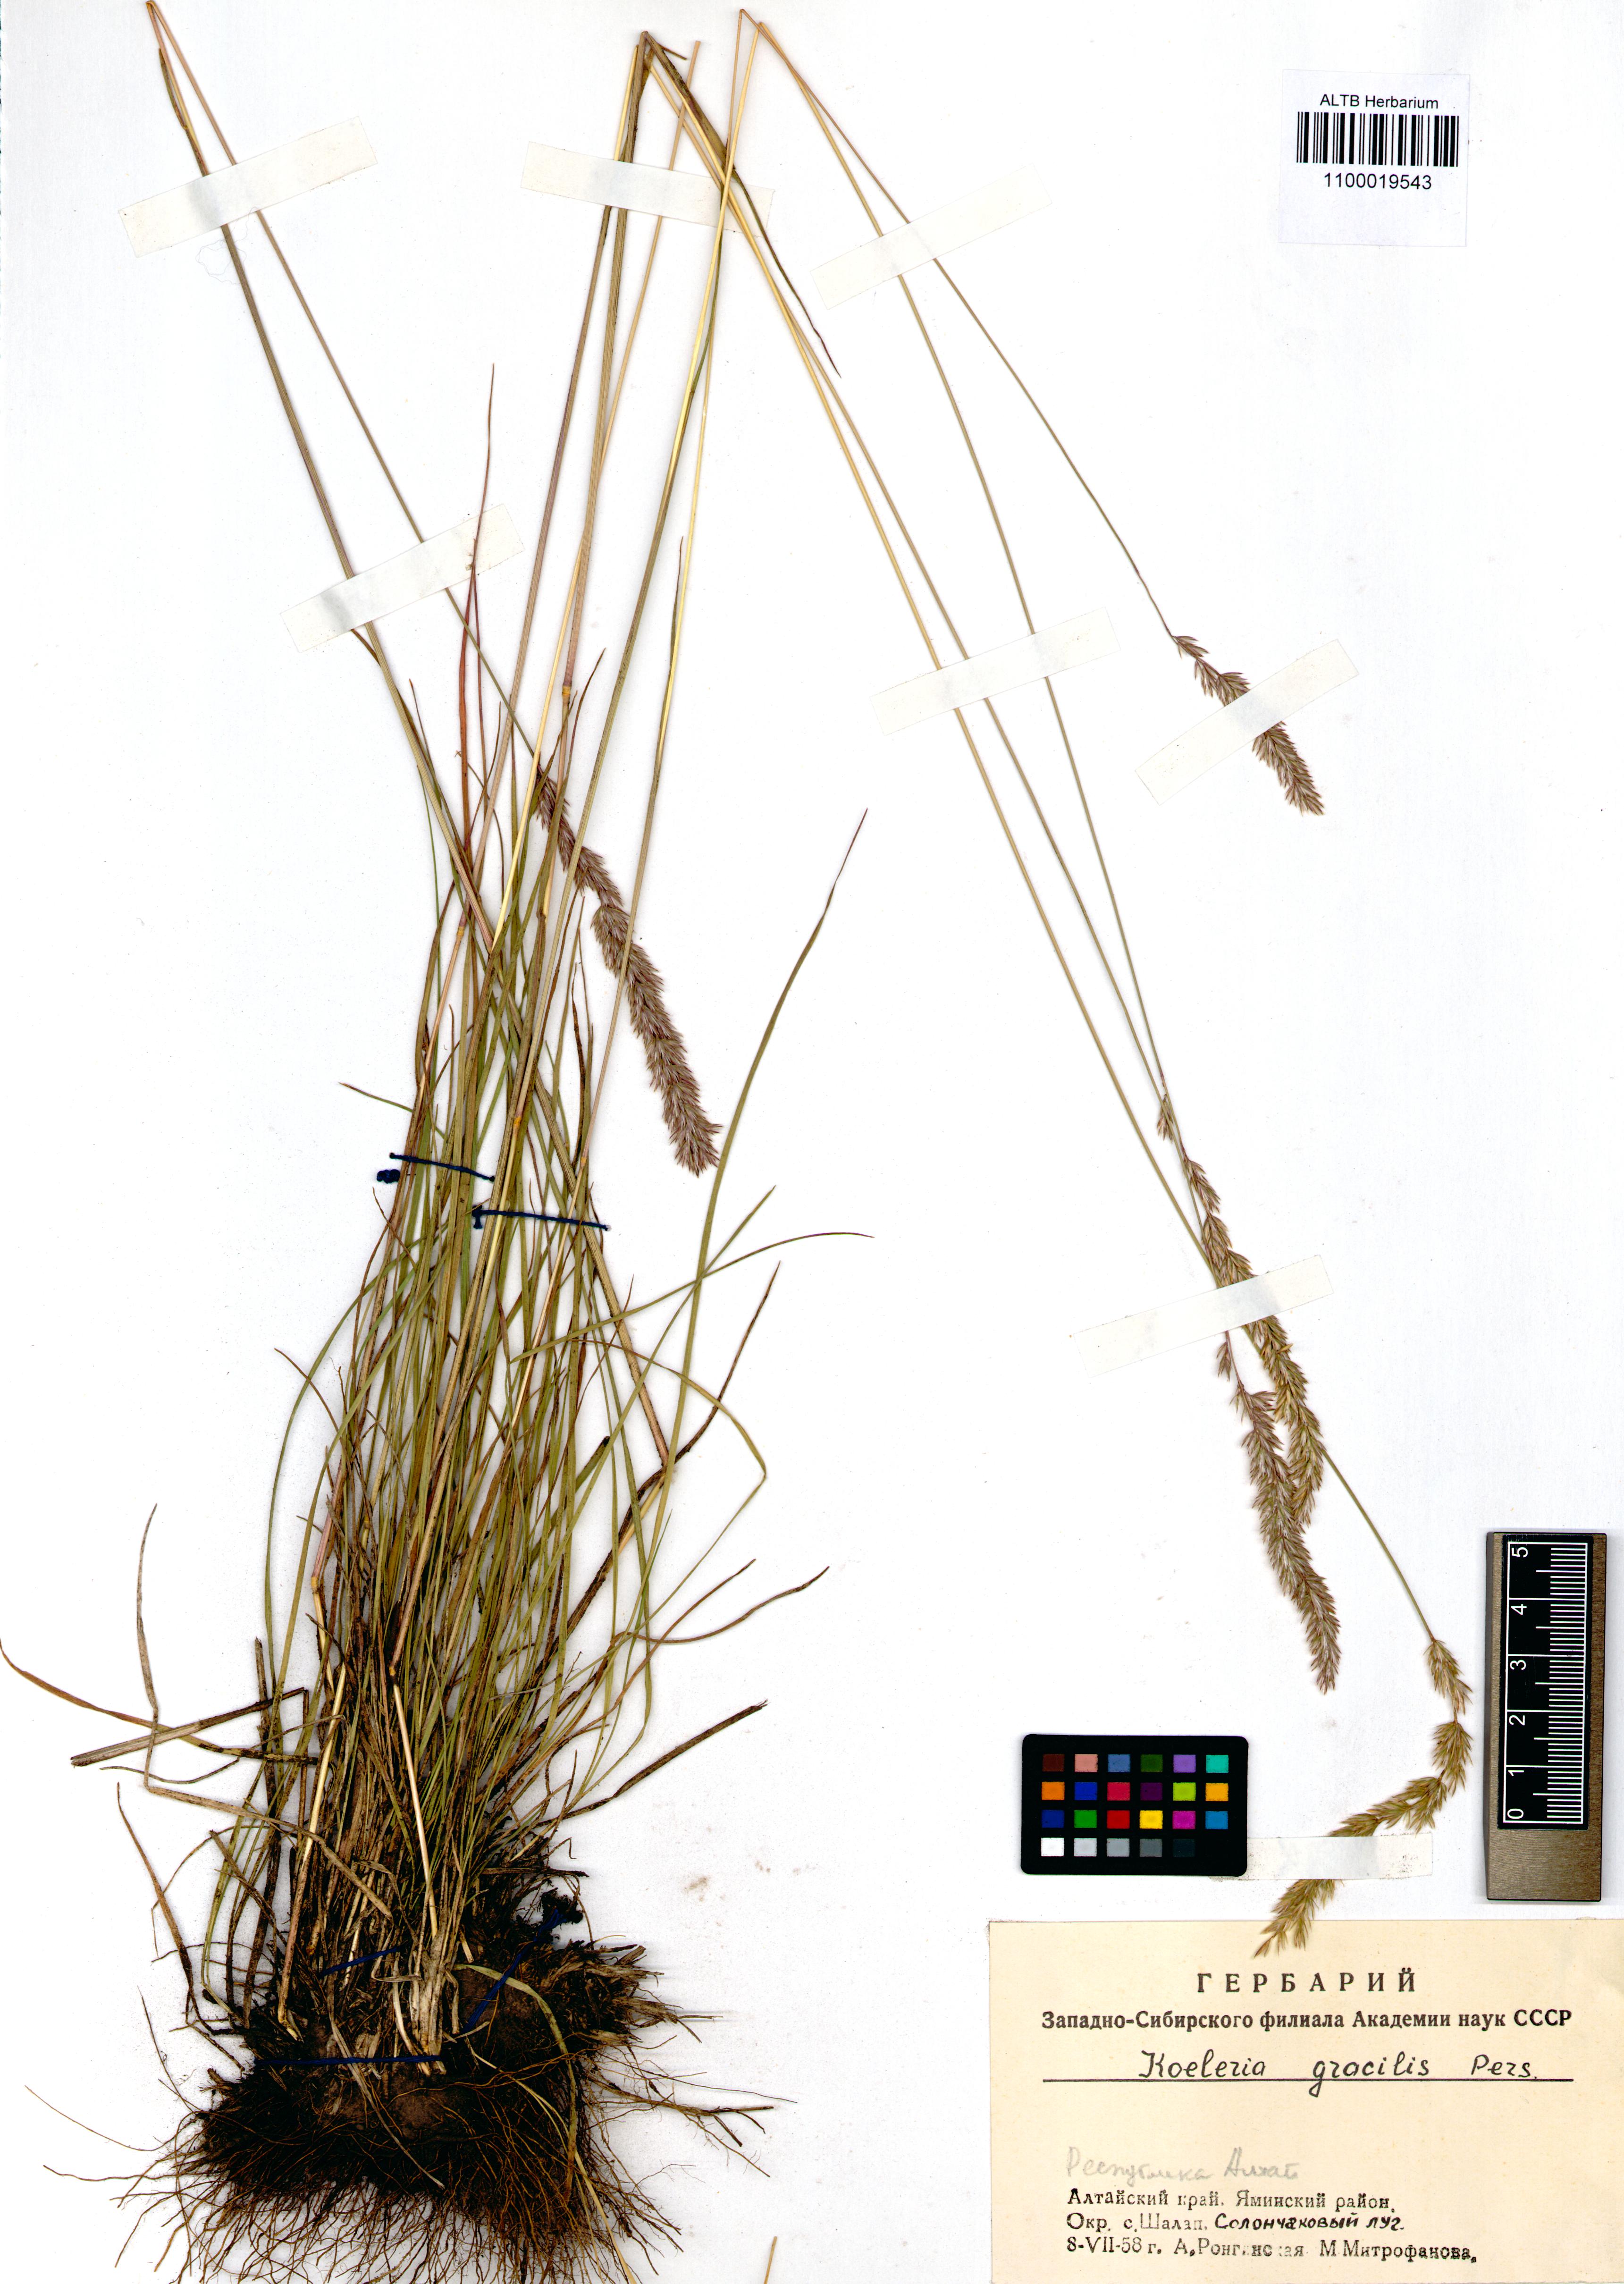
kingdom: Plantae
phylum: Tracheophyta
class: Liliopsida
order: Poales
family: Poaceae
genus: Koeleria
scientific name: Koeleria macrantha
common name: Crested hair-grass
